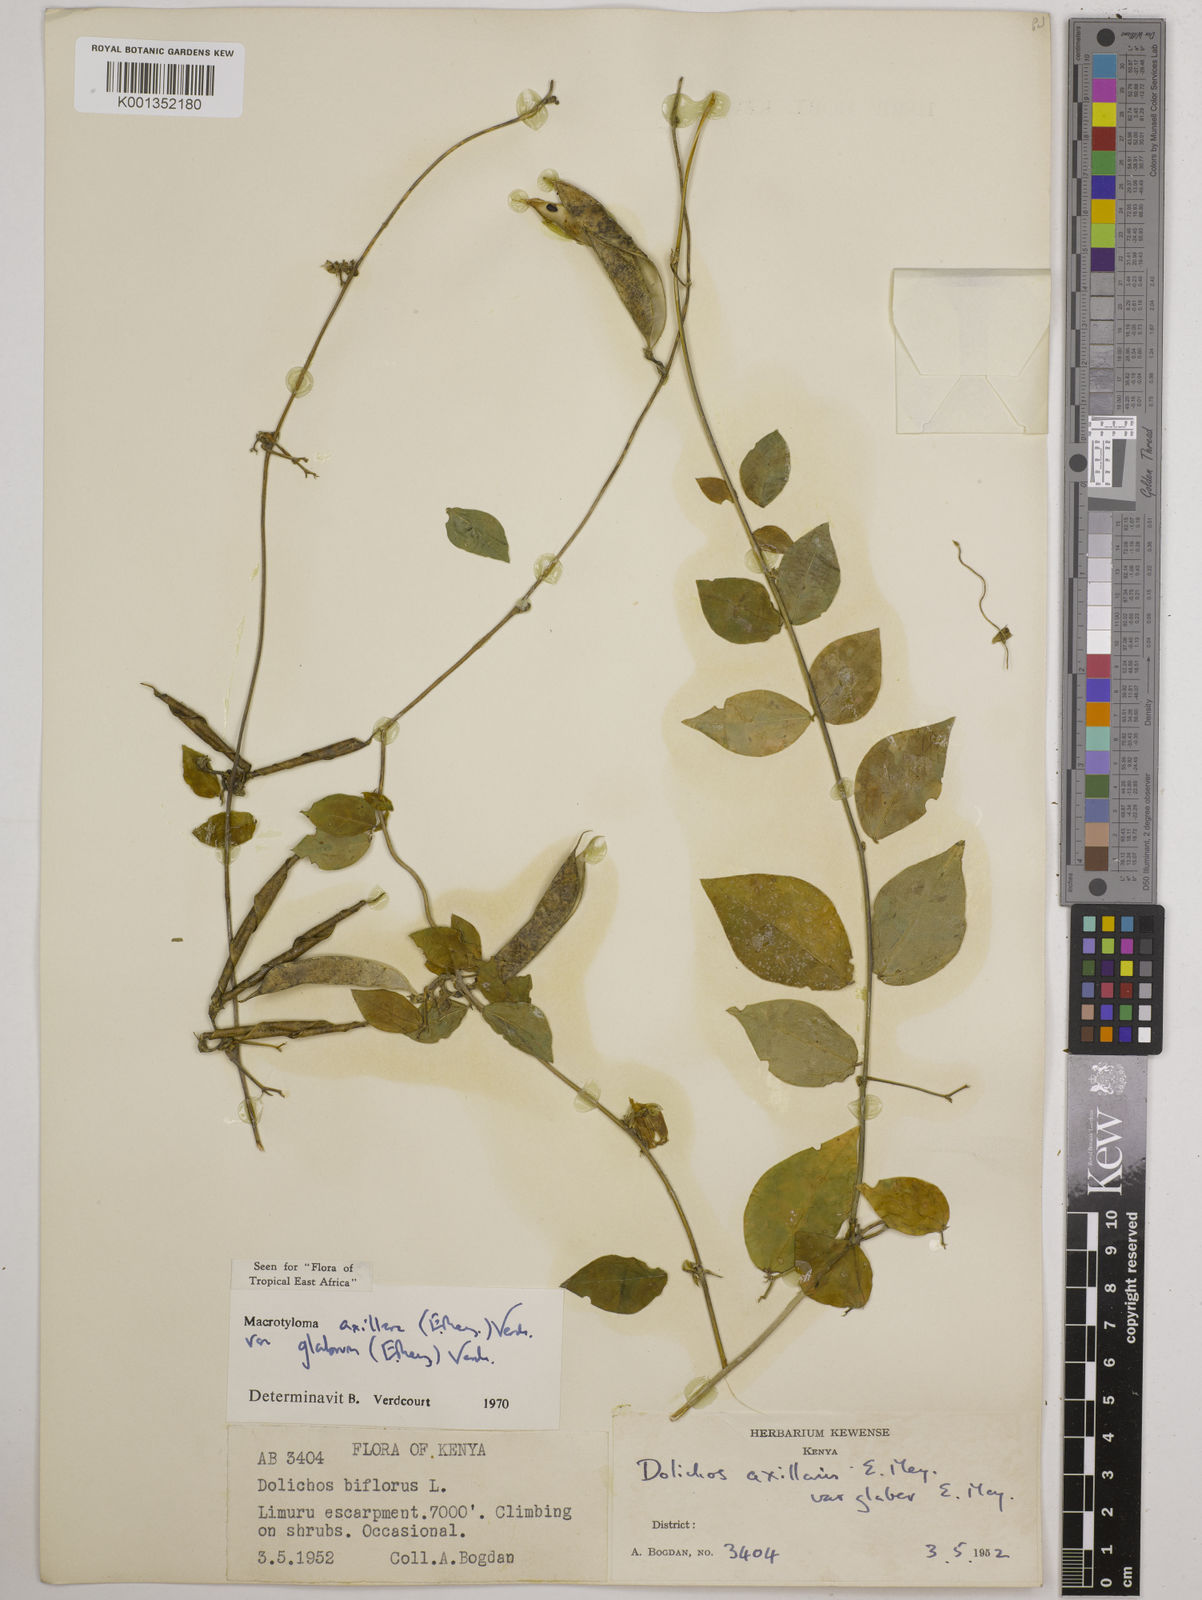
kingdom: Plantae
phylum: Tracheophyta
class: Magnoliopsida
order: Fabales
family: Fabaceae
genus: Macrotyloma
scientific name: Macrotyloma
